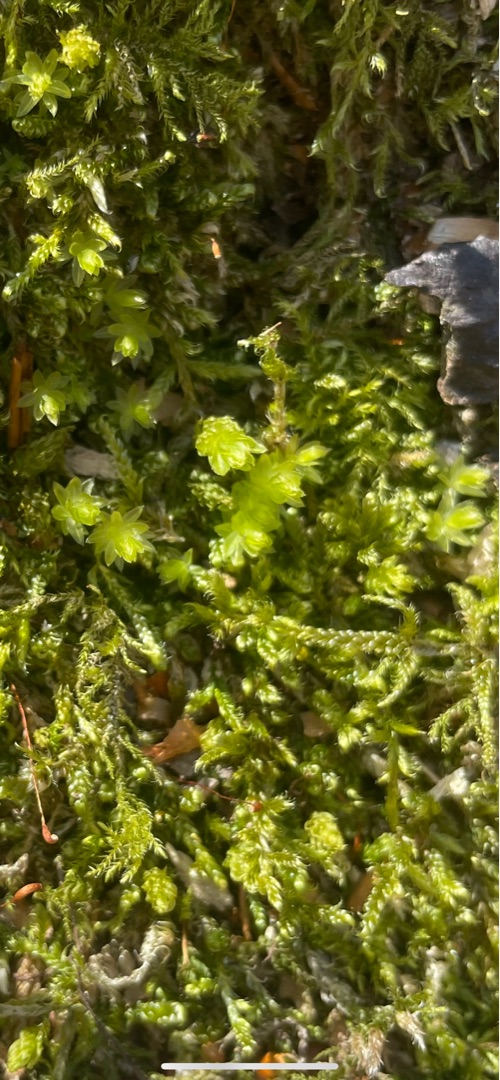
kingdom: Plantae
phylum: Bryophyta
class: Bryopsida
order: Bryales
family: Mniaceae
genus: Mnium
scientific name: Mnium hornum
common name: Brunfiltet stjernemos
